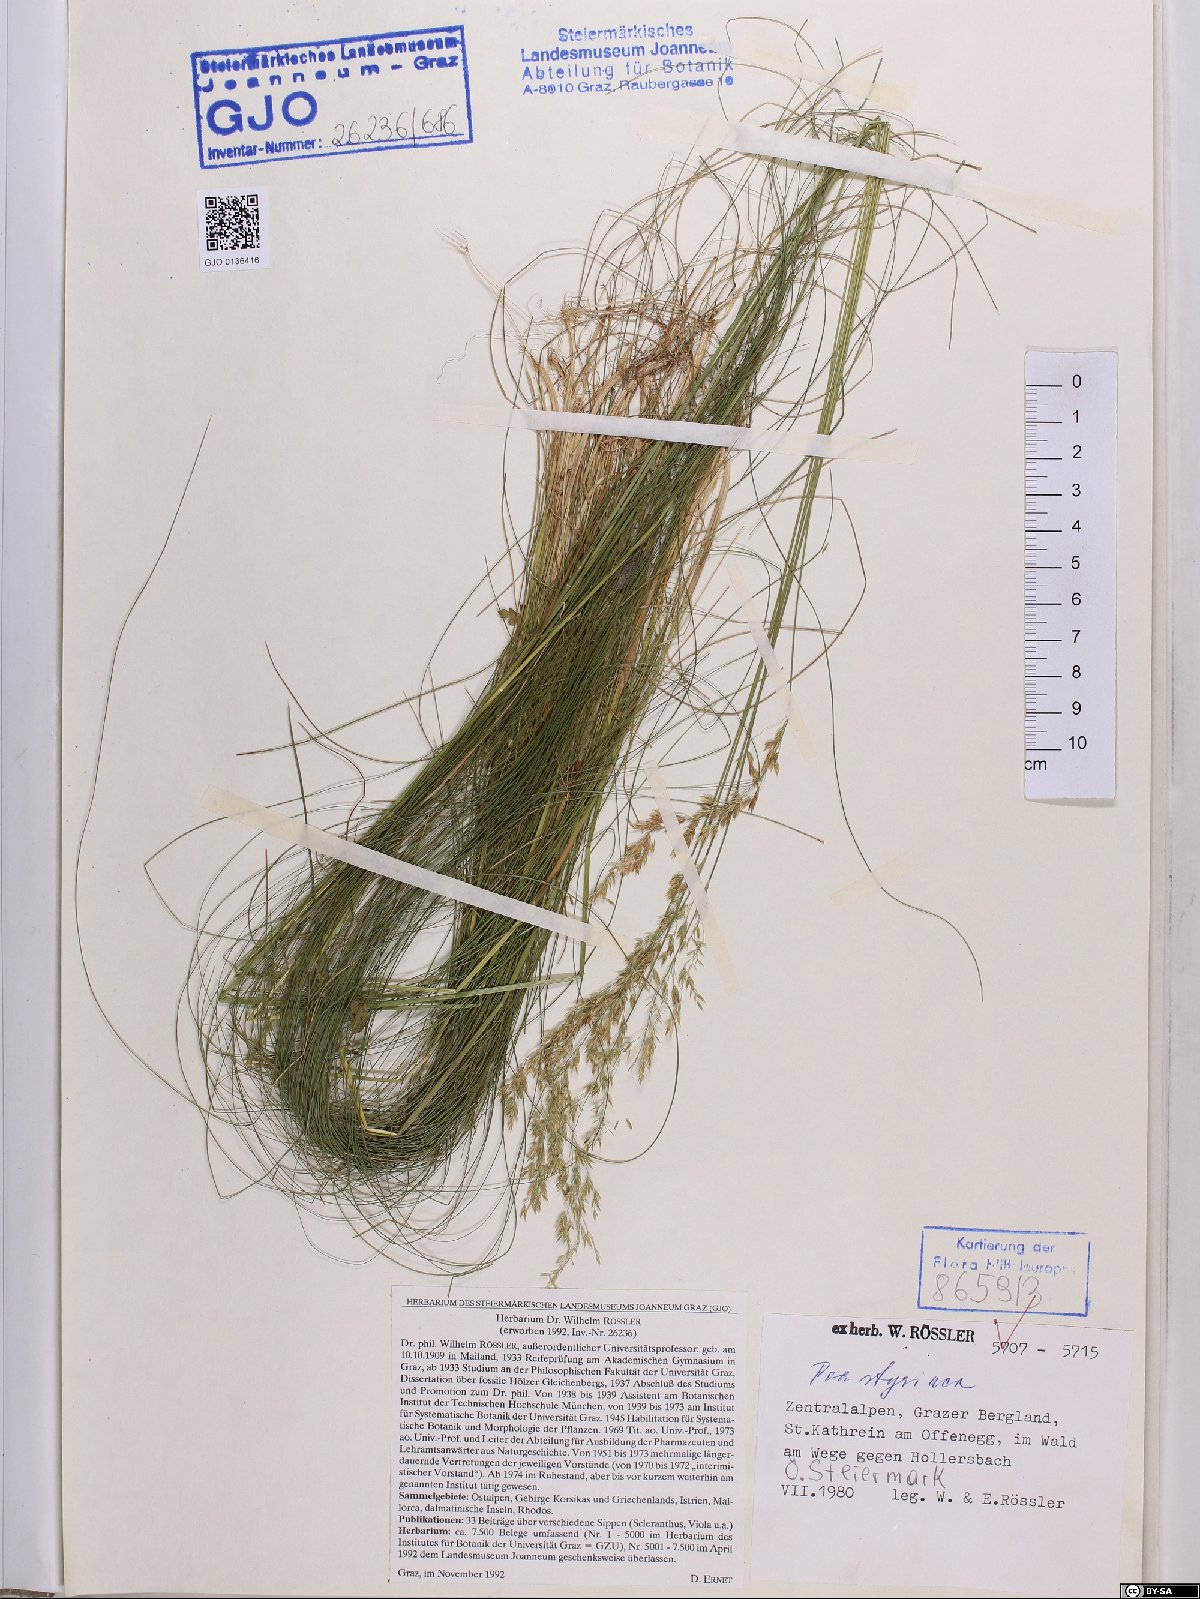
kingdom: Plantae
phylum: Tracheophyta
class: Liliopsida
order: Poales
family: Poaceae
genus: Poa
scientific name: Poa stiriaca
